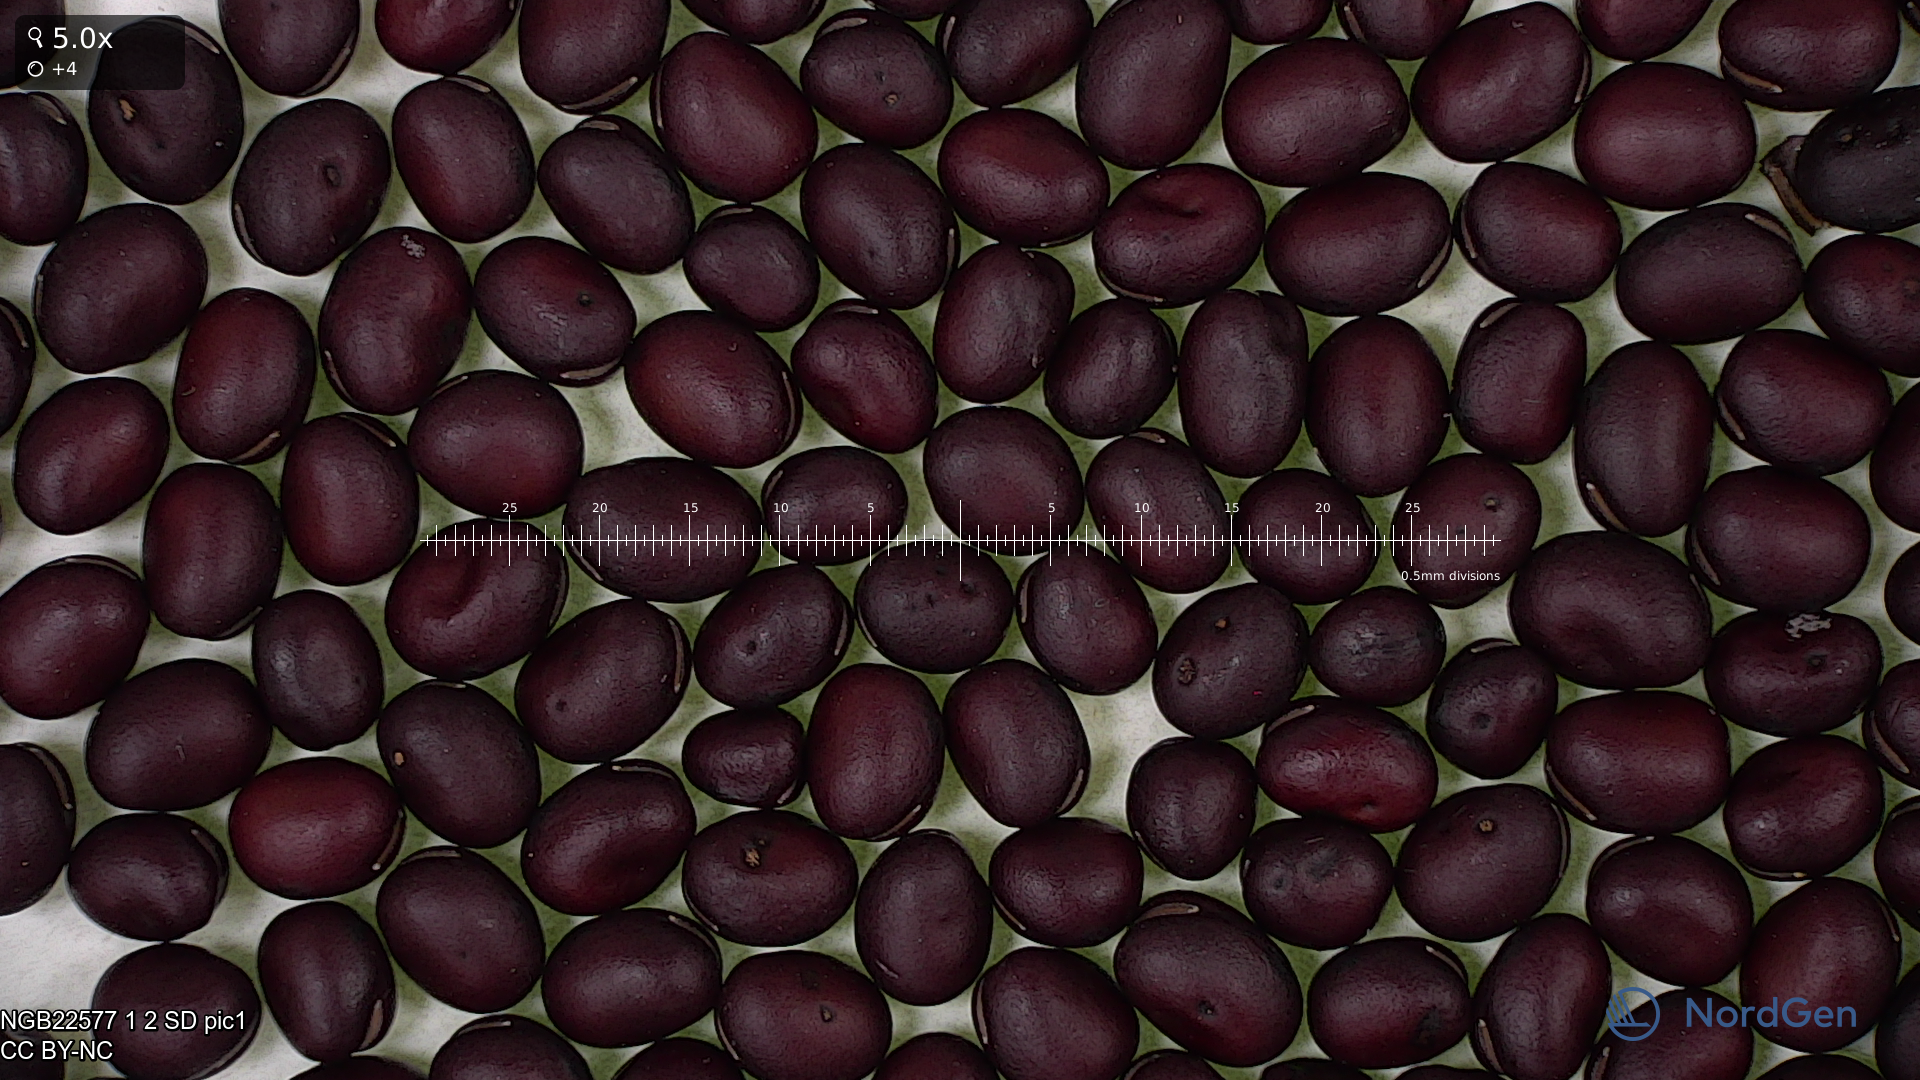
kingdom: Plantae
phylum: Tracheophyta
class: Magnoliopsida
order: Fabales
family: Fabaceae
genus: Vicia
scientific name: Vicia faba
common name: Broad bean
